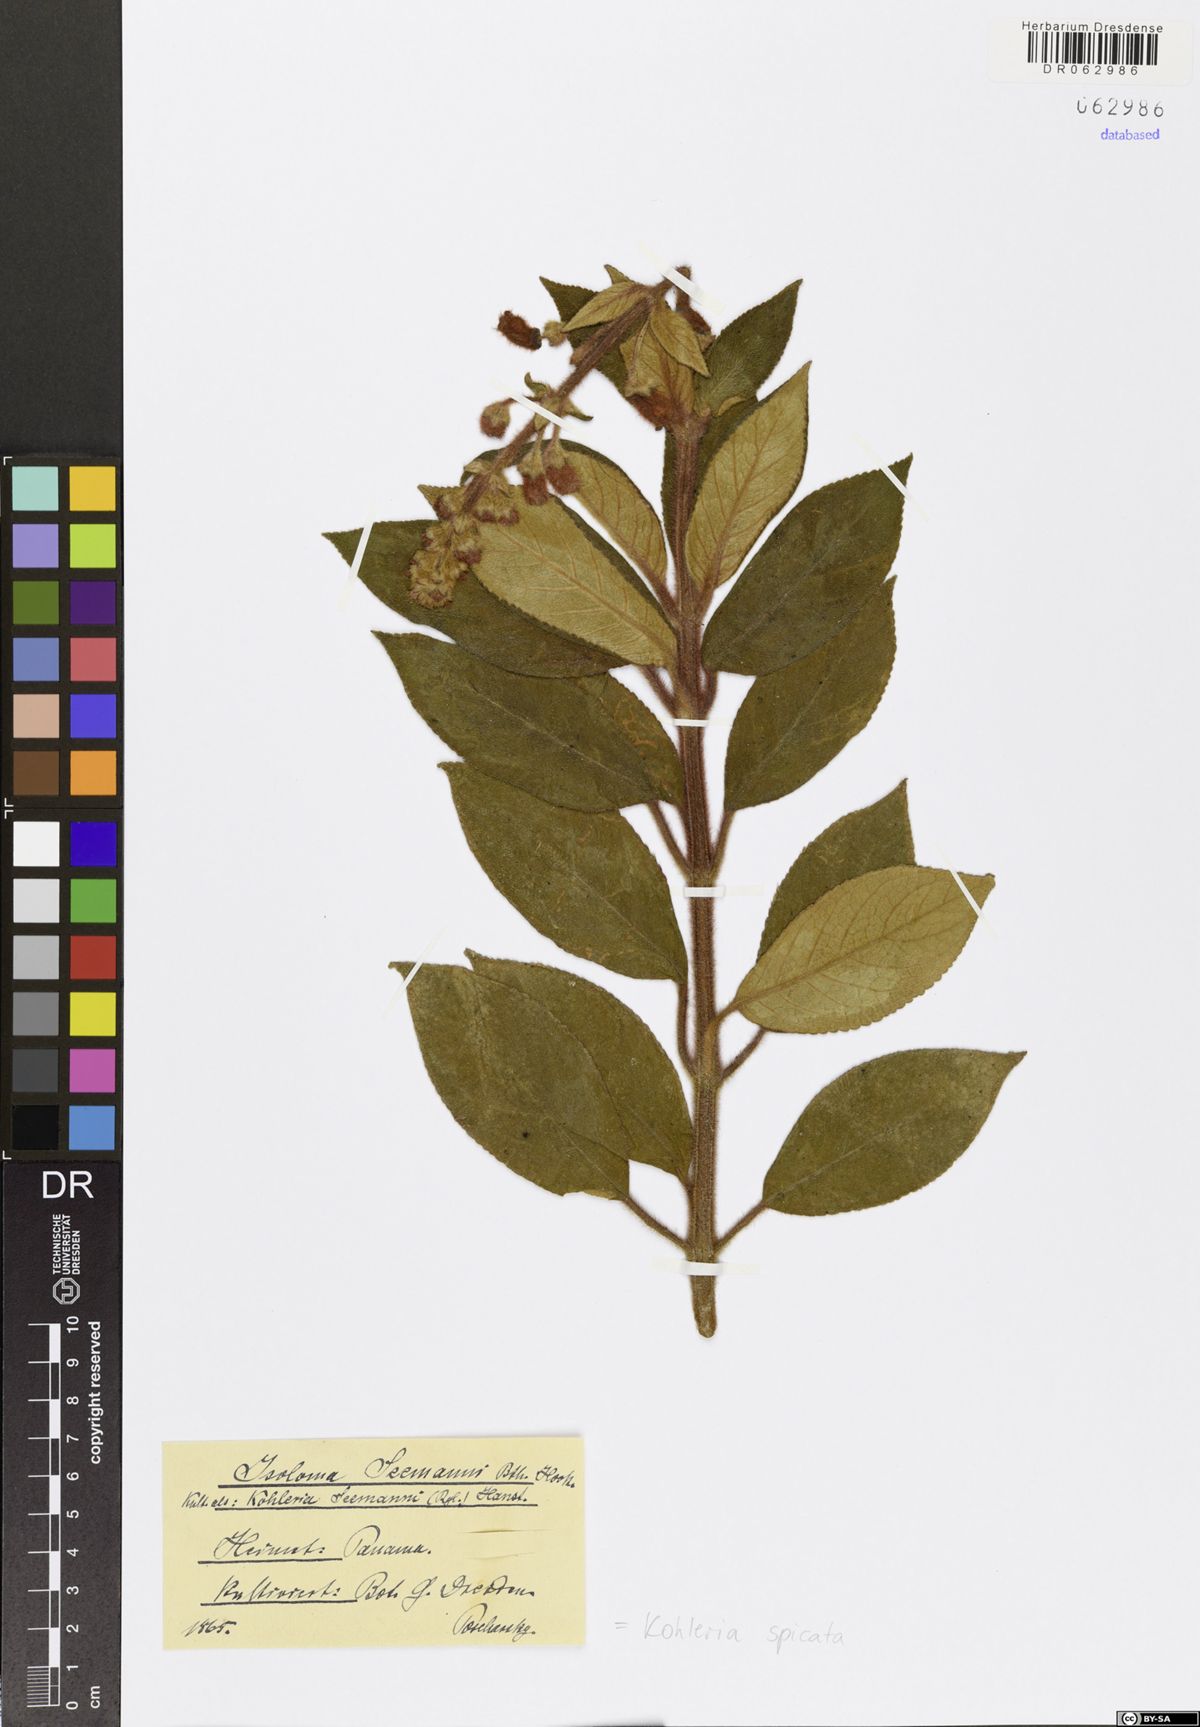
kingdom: Plantae
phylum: Tracheophyta
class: Magnoliopsida
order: Lamiales
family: Gesneriaceae
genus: Kohleria
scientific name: Kohleria spicata
